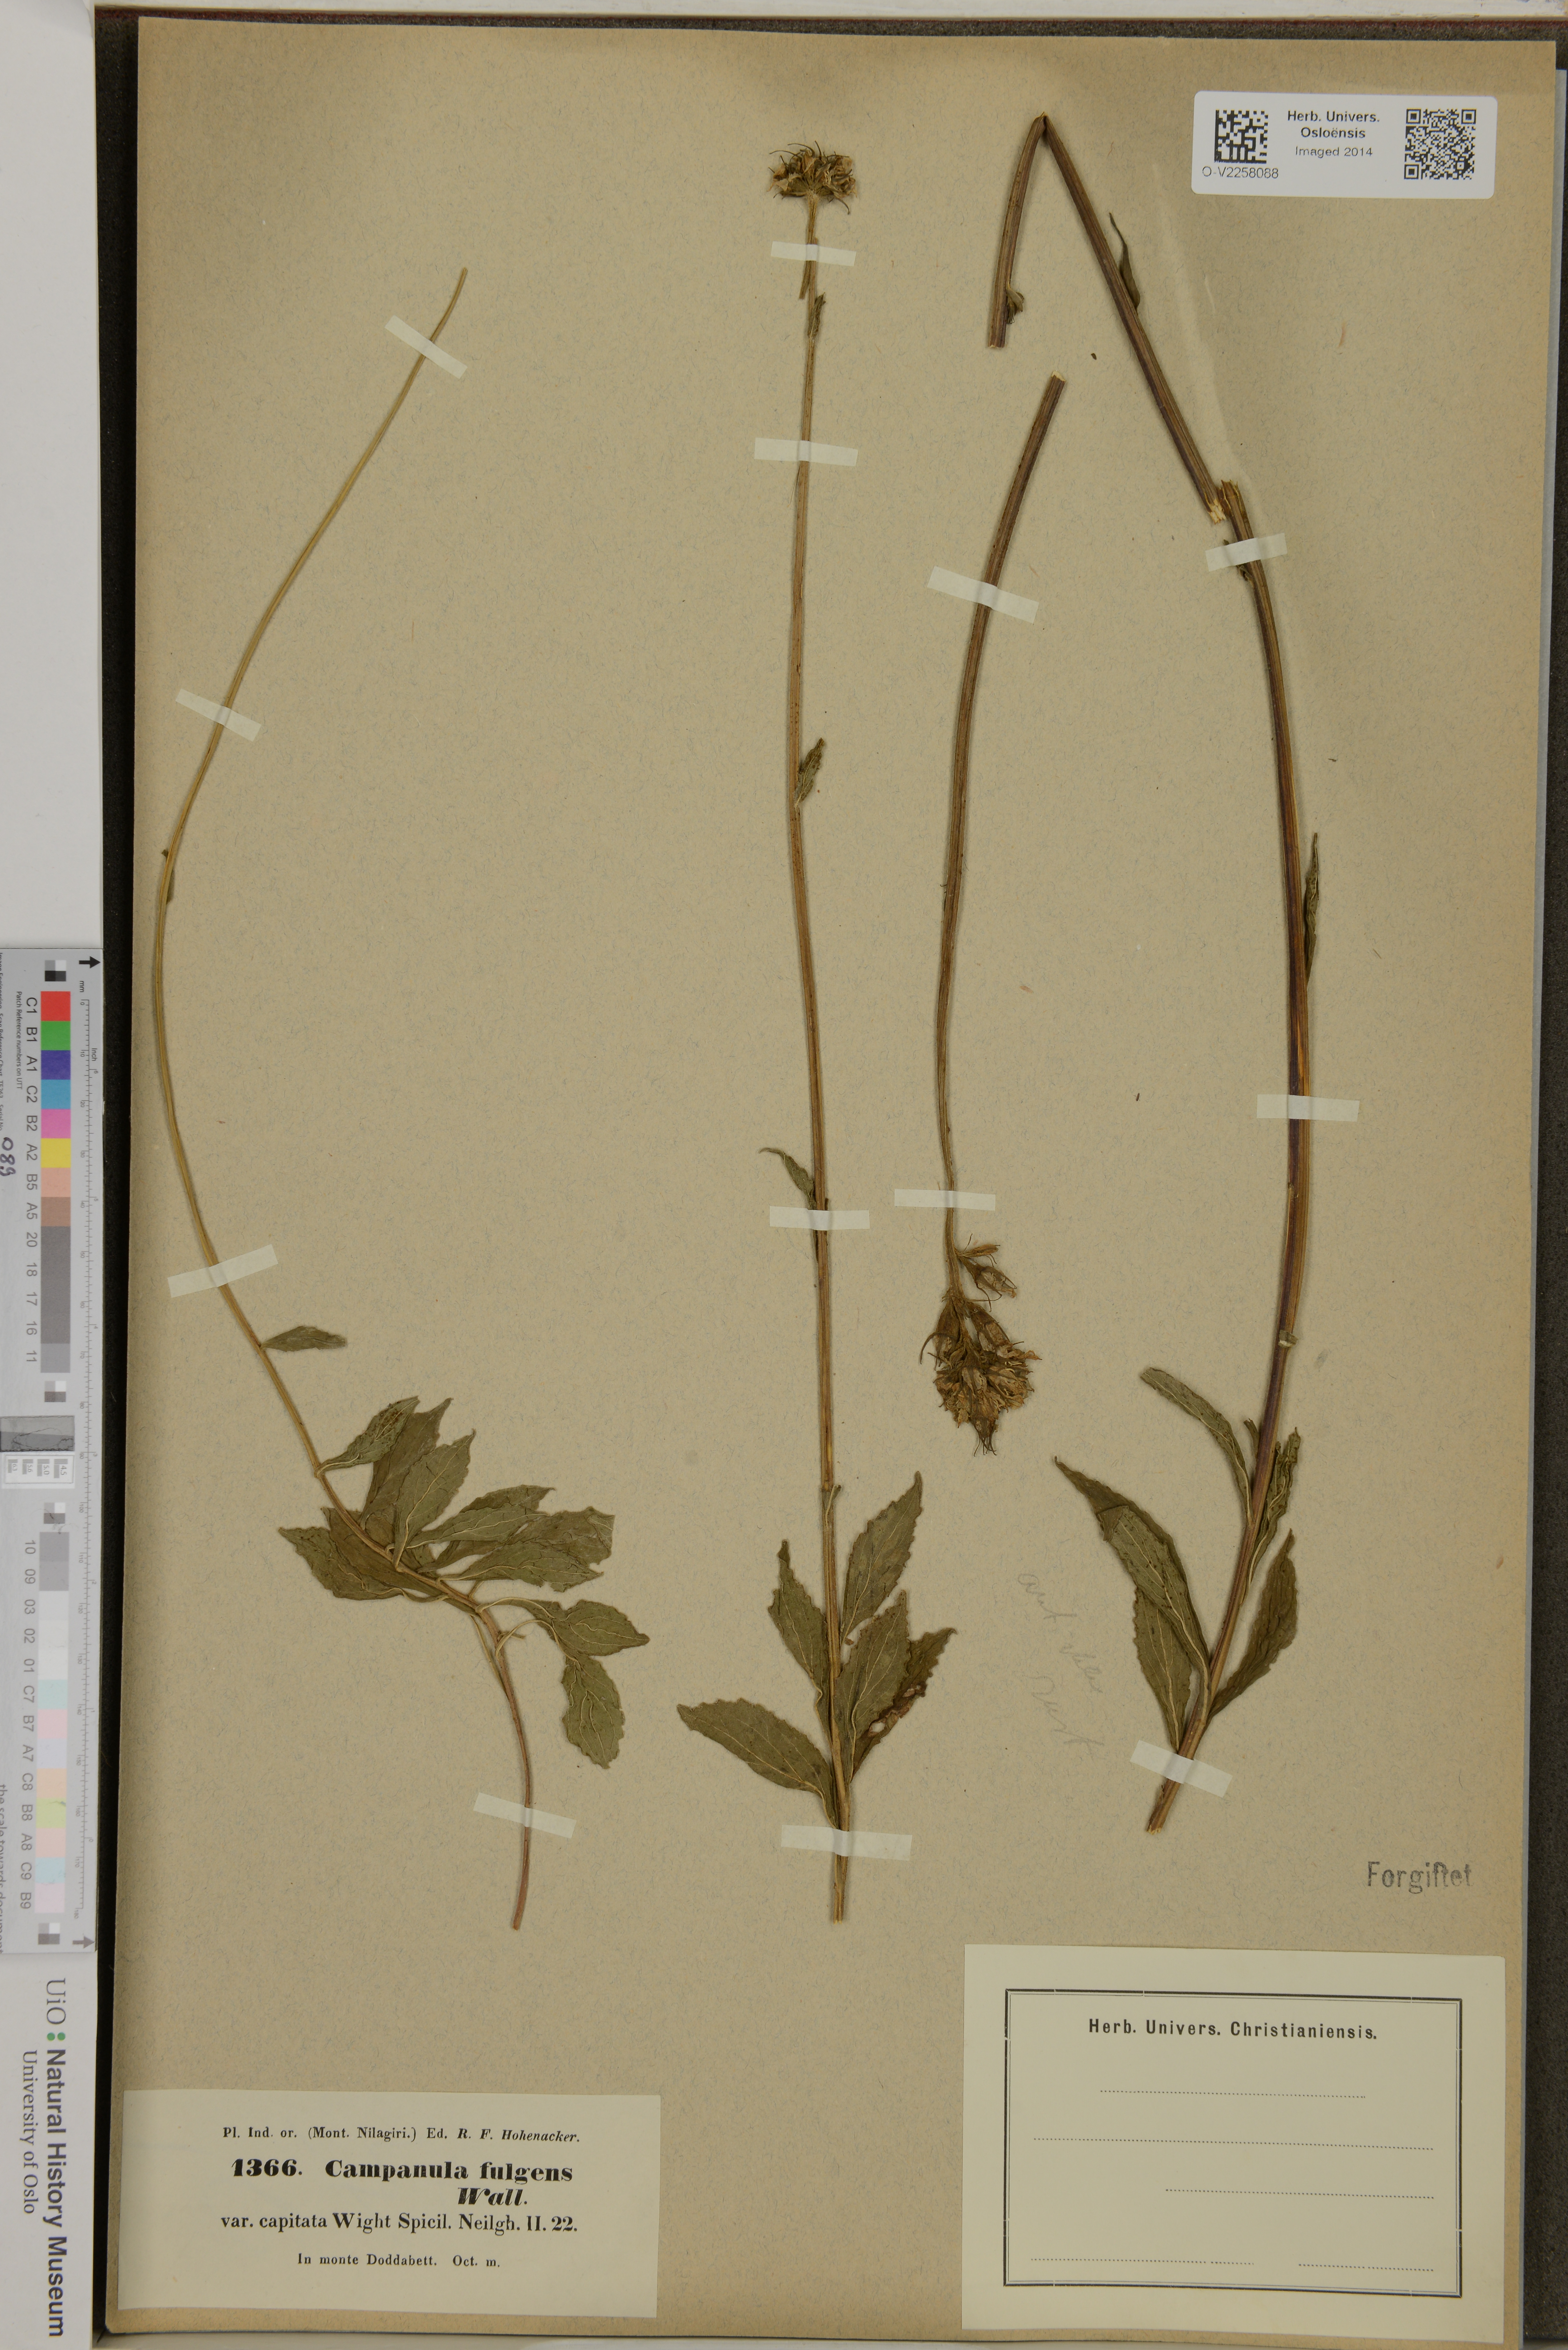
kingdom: Plantae
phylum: Tracheophyta
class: Magnoliopsida
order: Asterales
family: Campanulaceae
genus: Campanula
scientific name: Campanula fulgens
